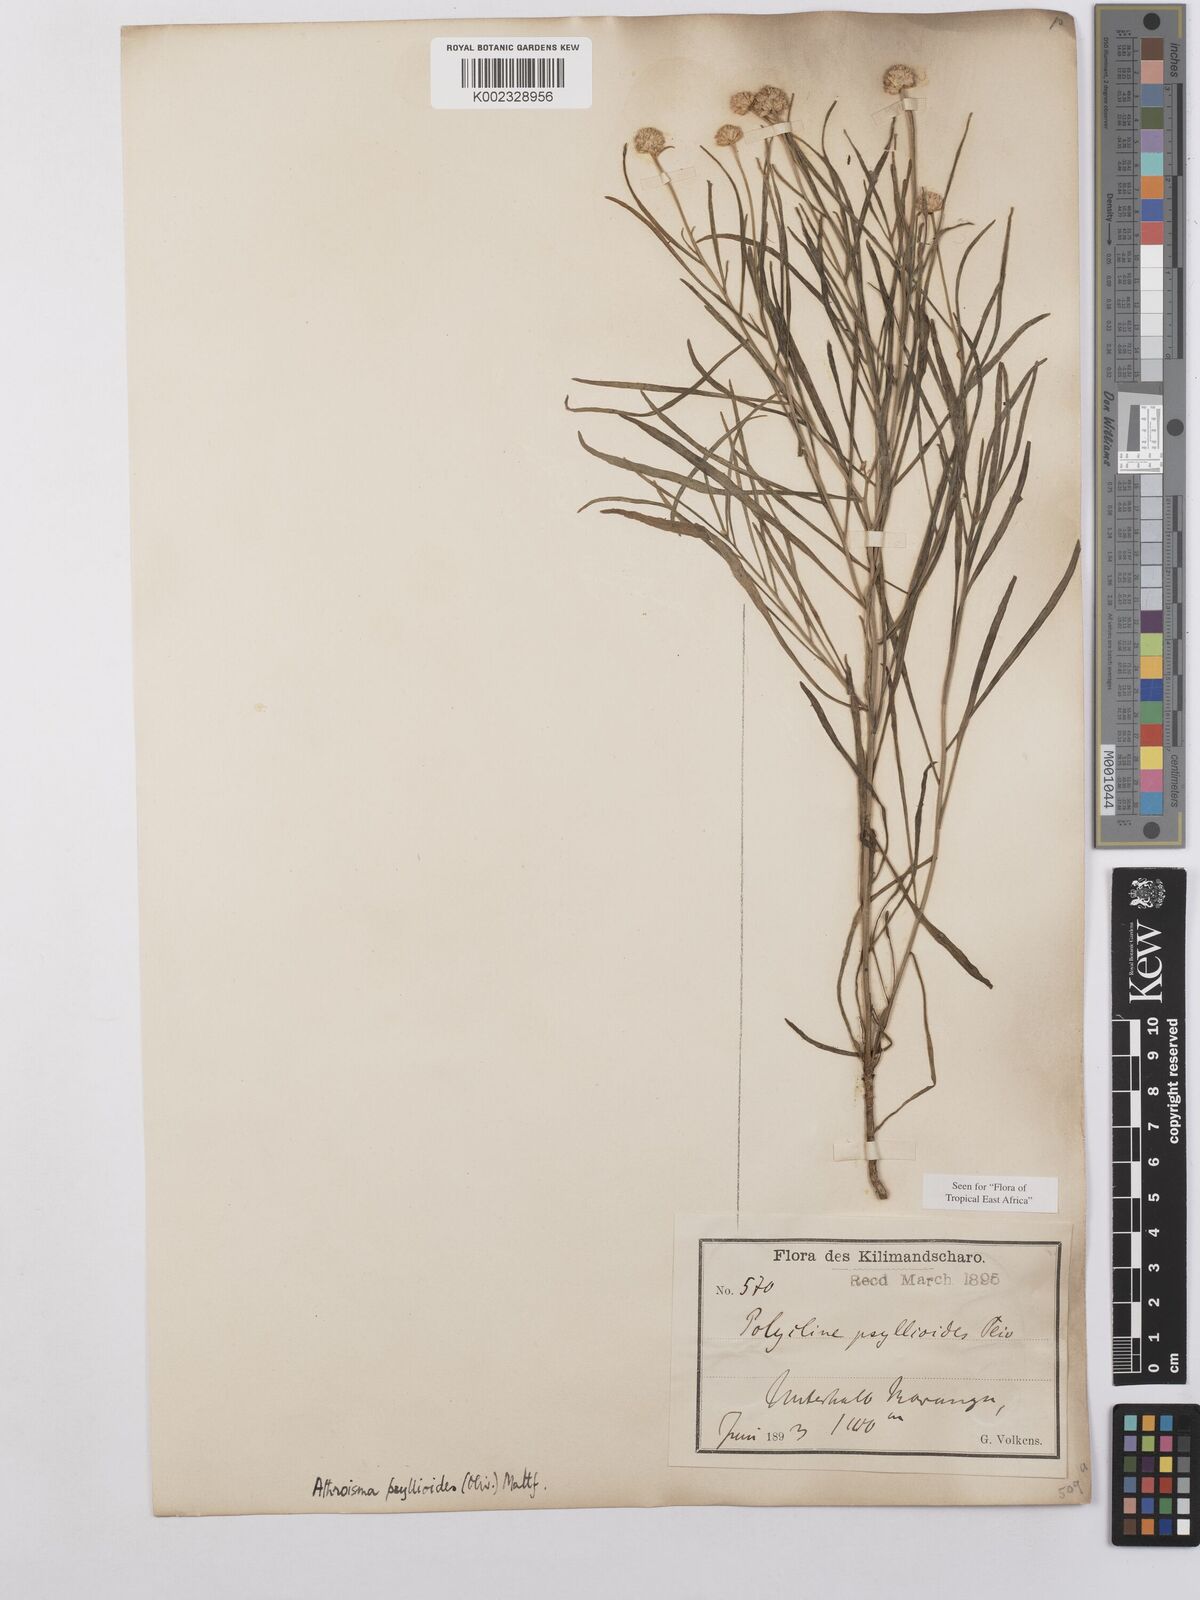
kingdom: Plantae
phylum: Tracheophyta
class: Magnoliopsida
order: Asterales
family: Asteraceae
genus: Athroisma
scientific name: Athroisma gracile
